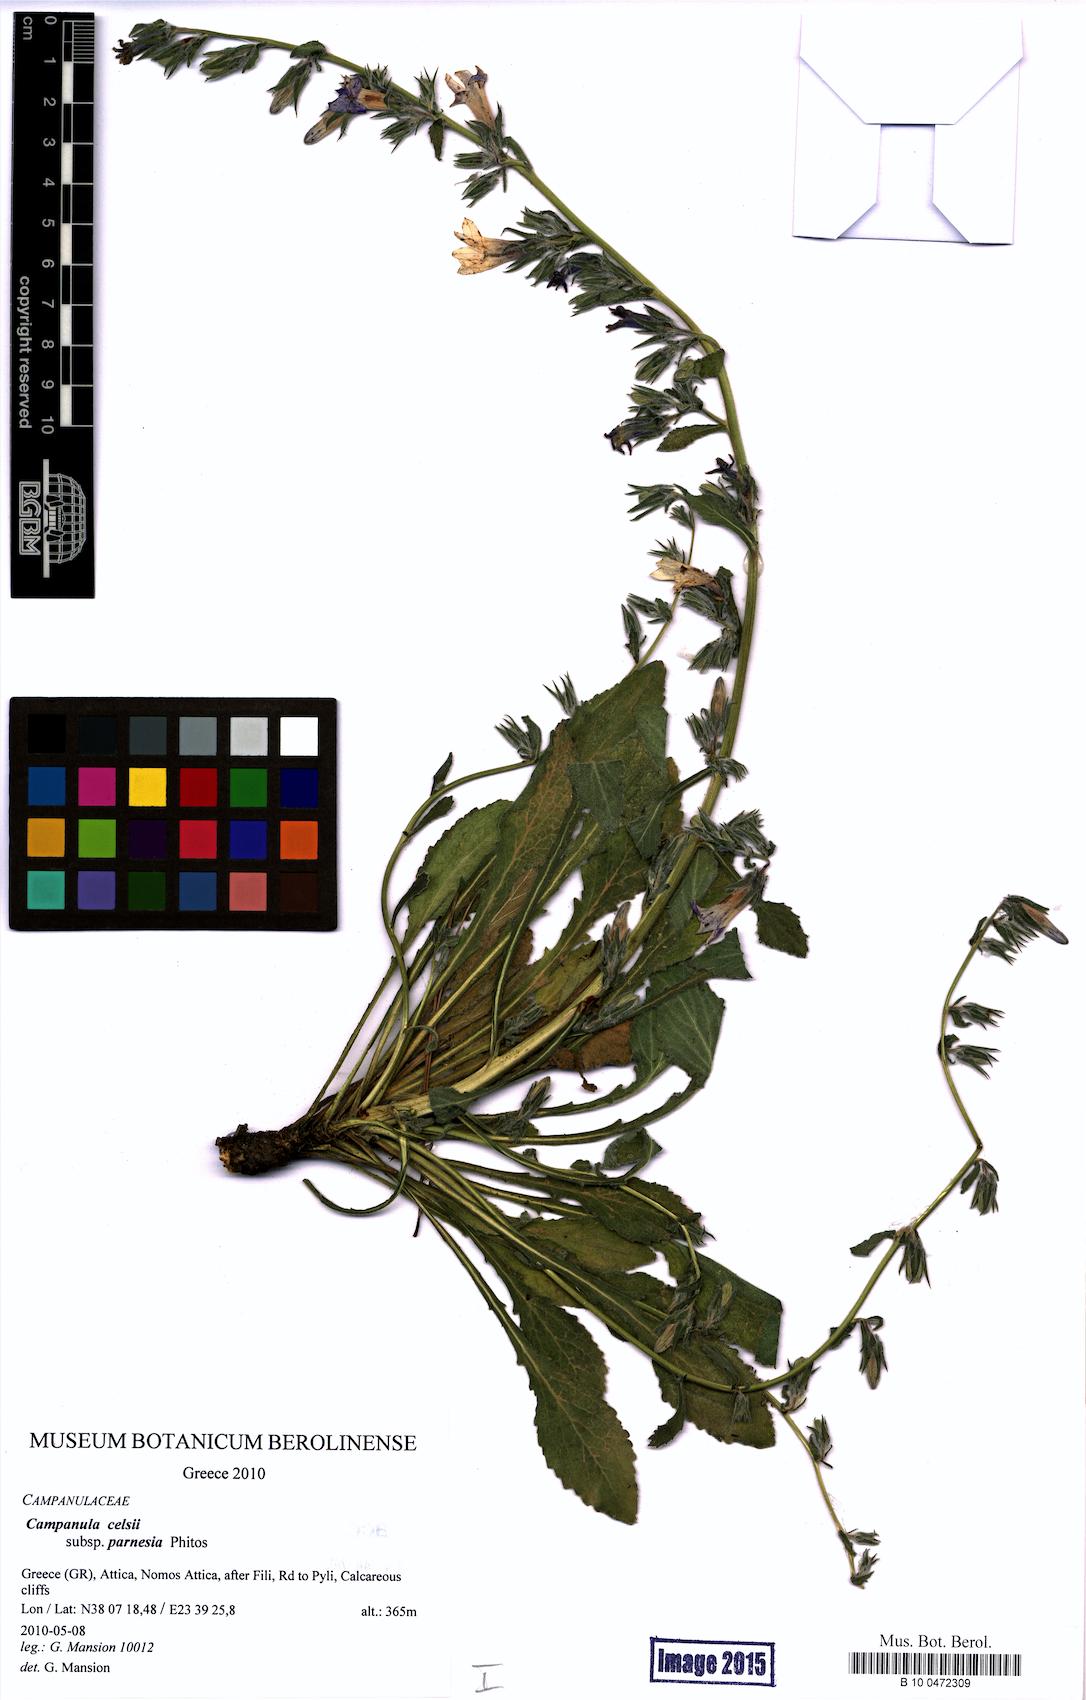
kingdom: Plantae
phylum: Tracheophyta
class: Magnoliopsida
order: Asterales
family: Campanulaceae
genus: Campanula
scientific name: Campanula celsii
